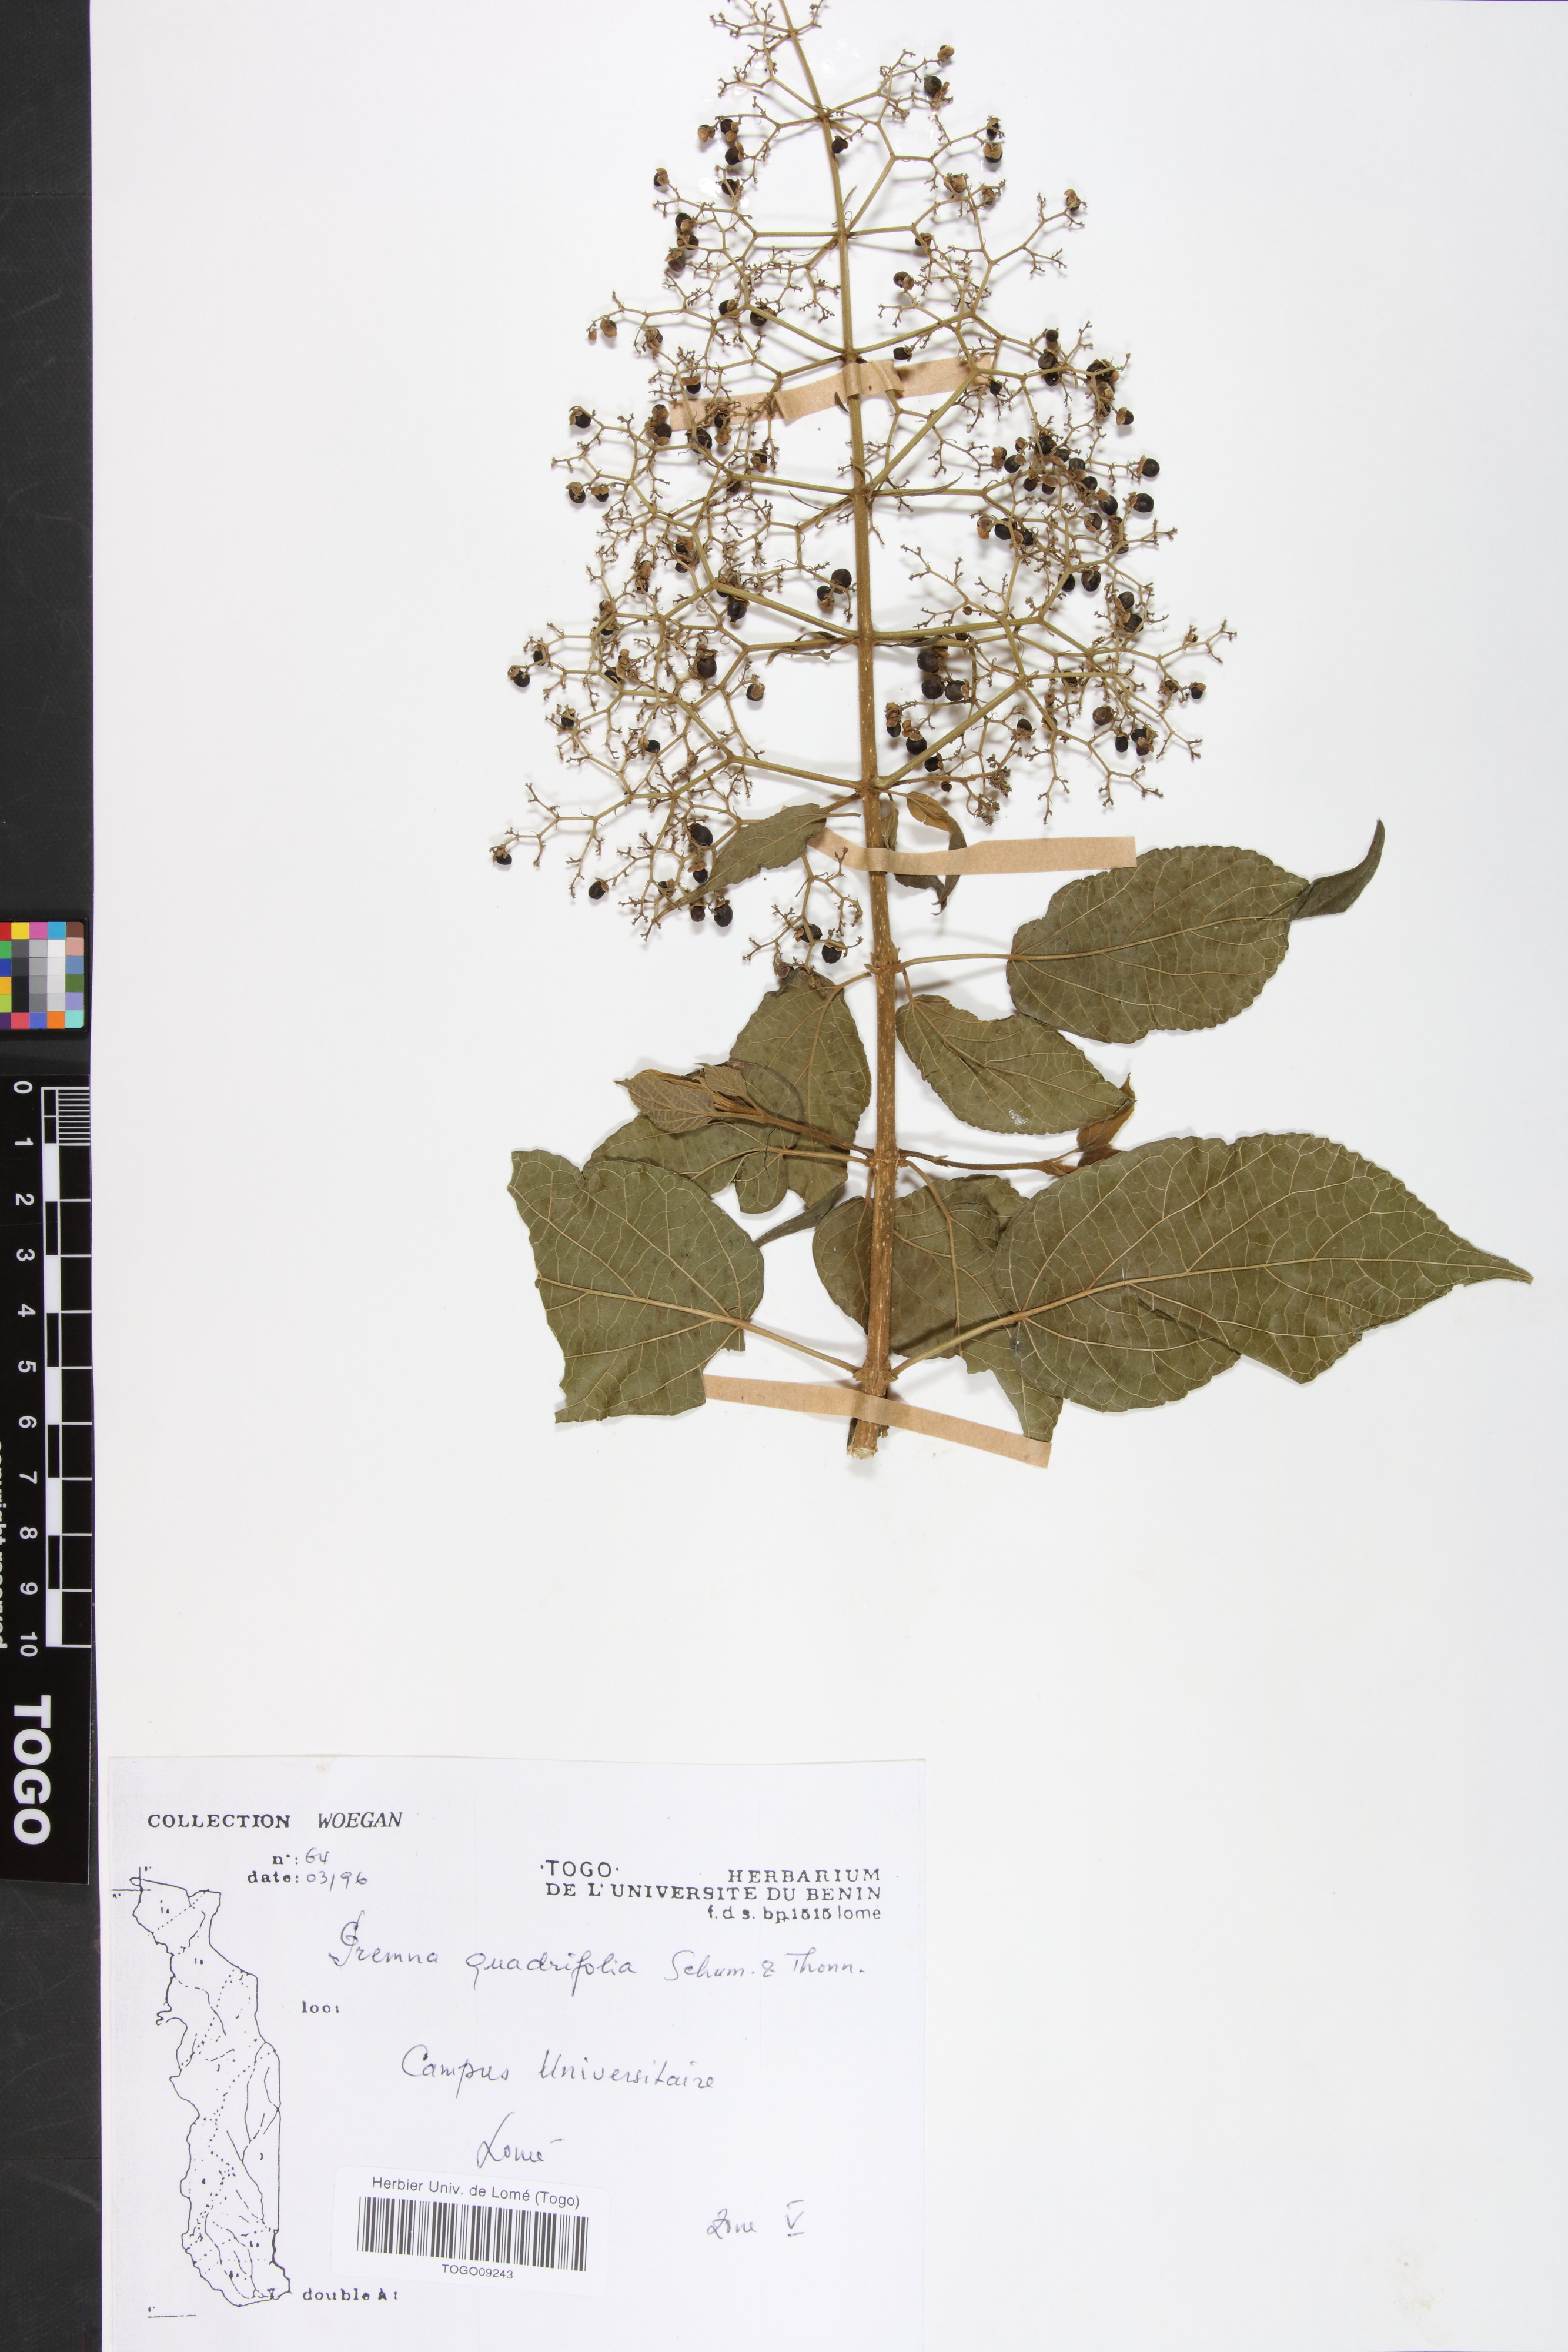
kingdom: Plantae
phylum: Tracheophyta
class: Magnoliopsida
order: Lamiales
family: Lamiaceae
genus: Premna
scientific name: Premna quadrifolia
